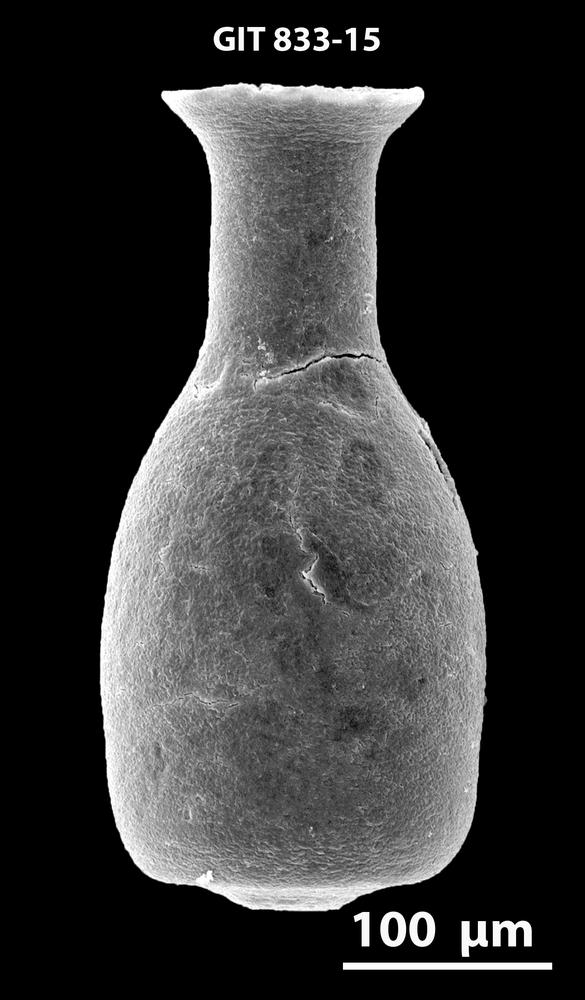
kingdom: Animalia
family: Lagenochitinidae
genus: Lagenochitina
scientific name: Lagenochitina
